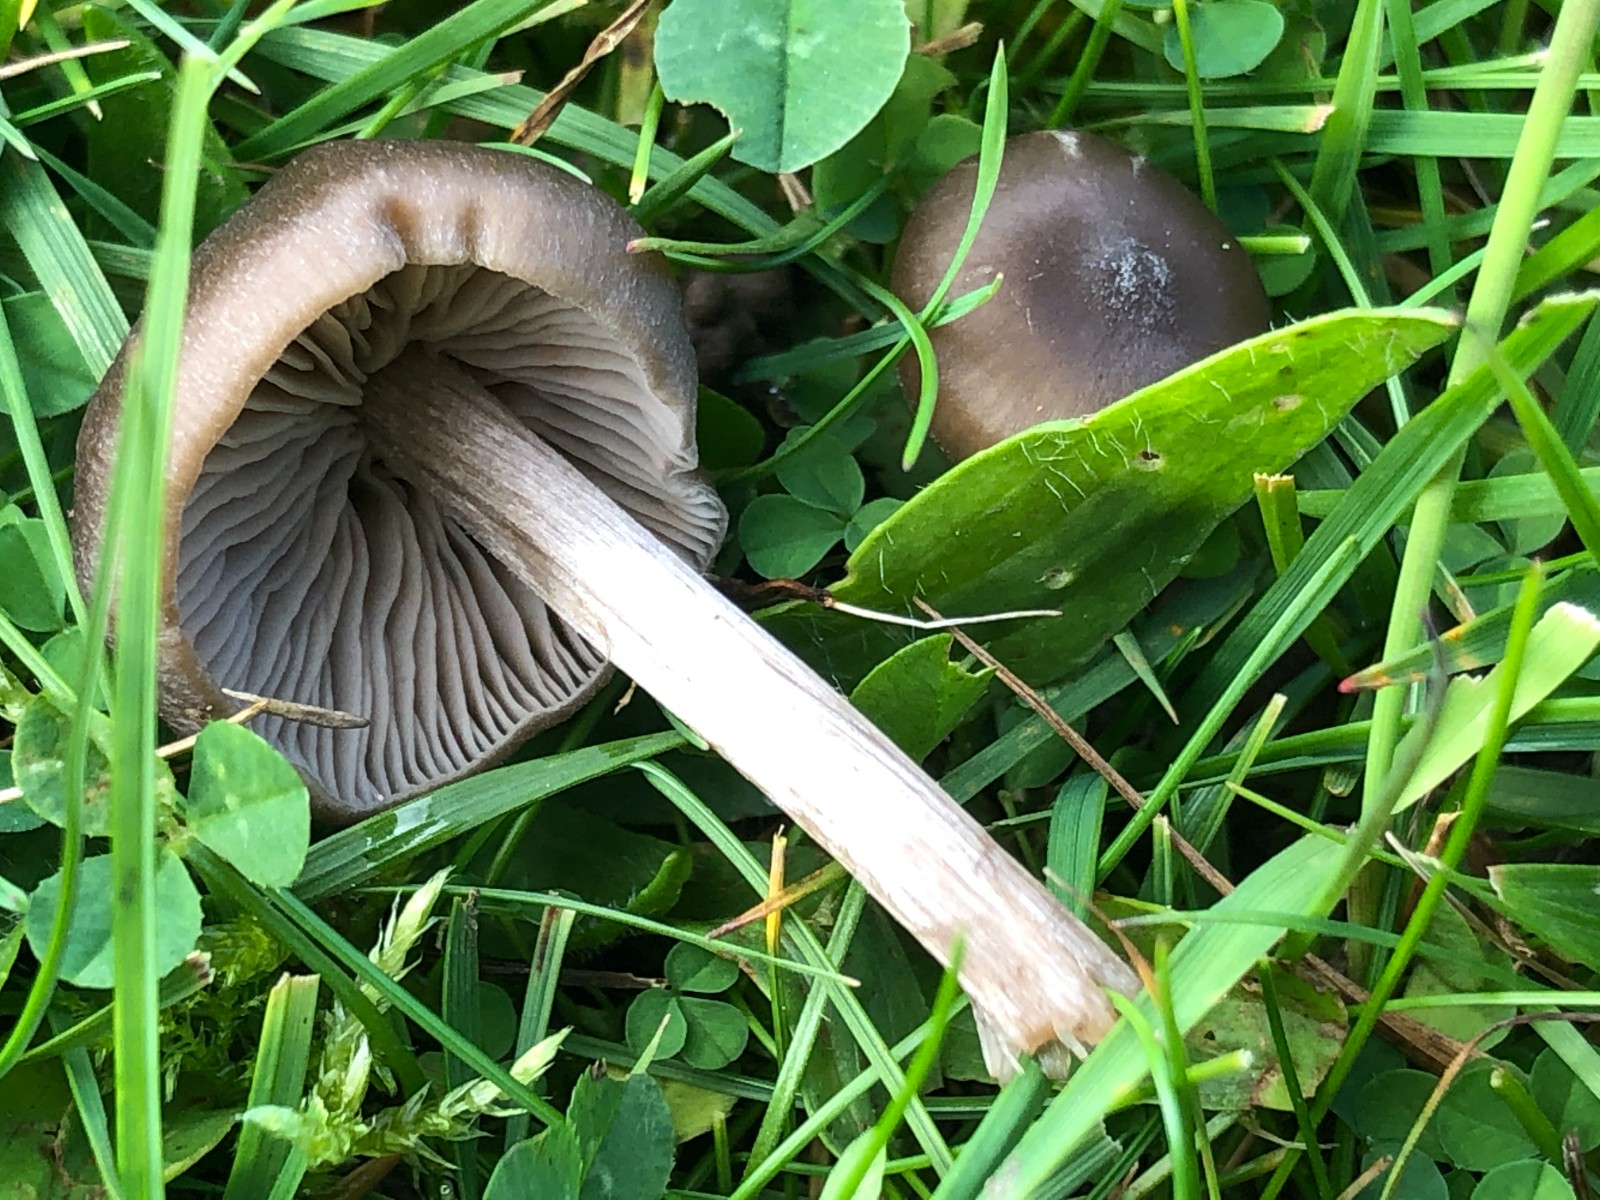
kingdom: Fungi
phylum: Basidiomycota
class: Agaricomycetes
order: Agaricales
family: Entolomataceae
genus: Entoloma
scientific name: Entoloma
